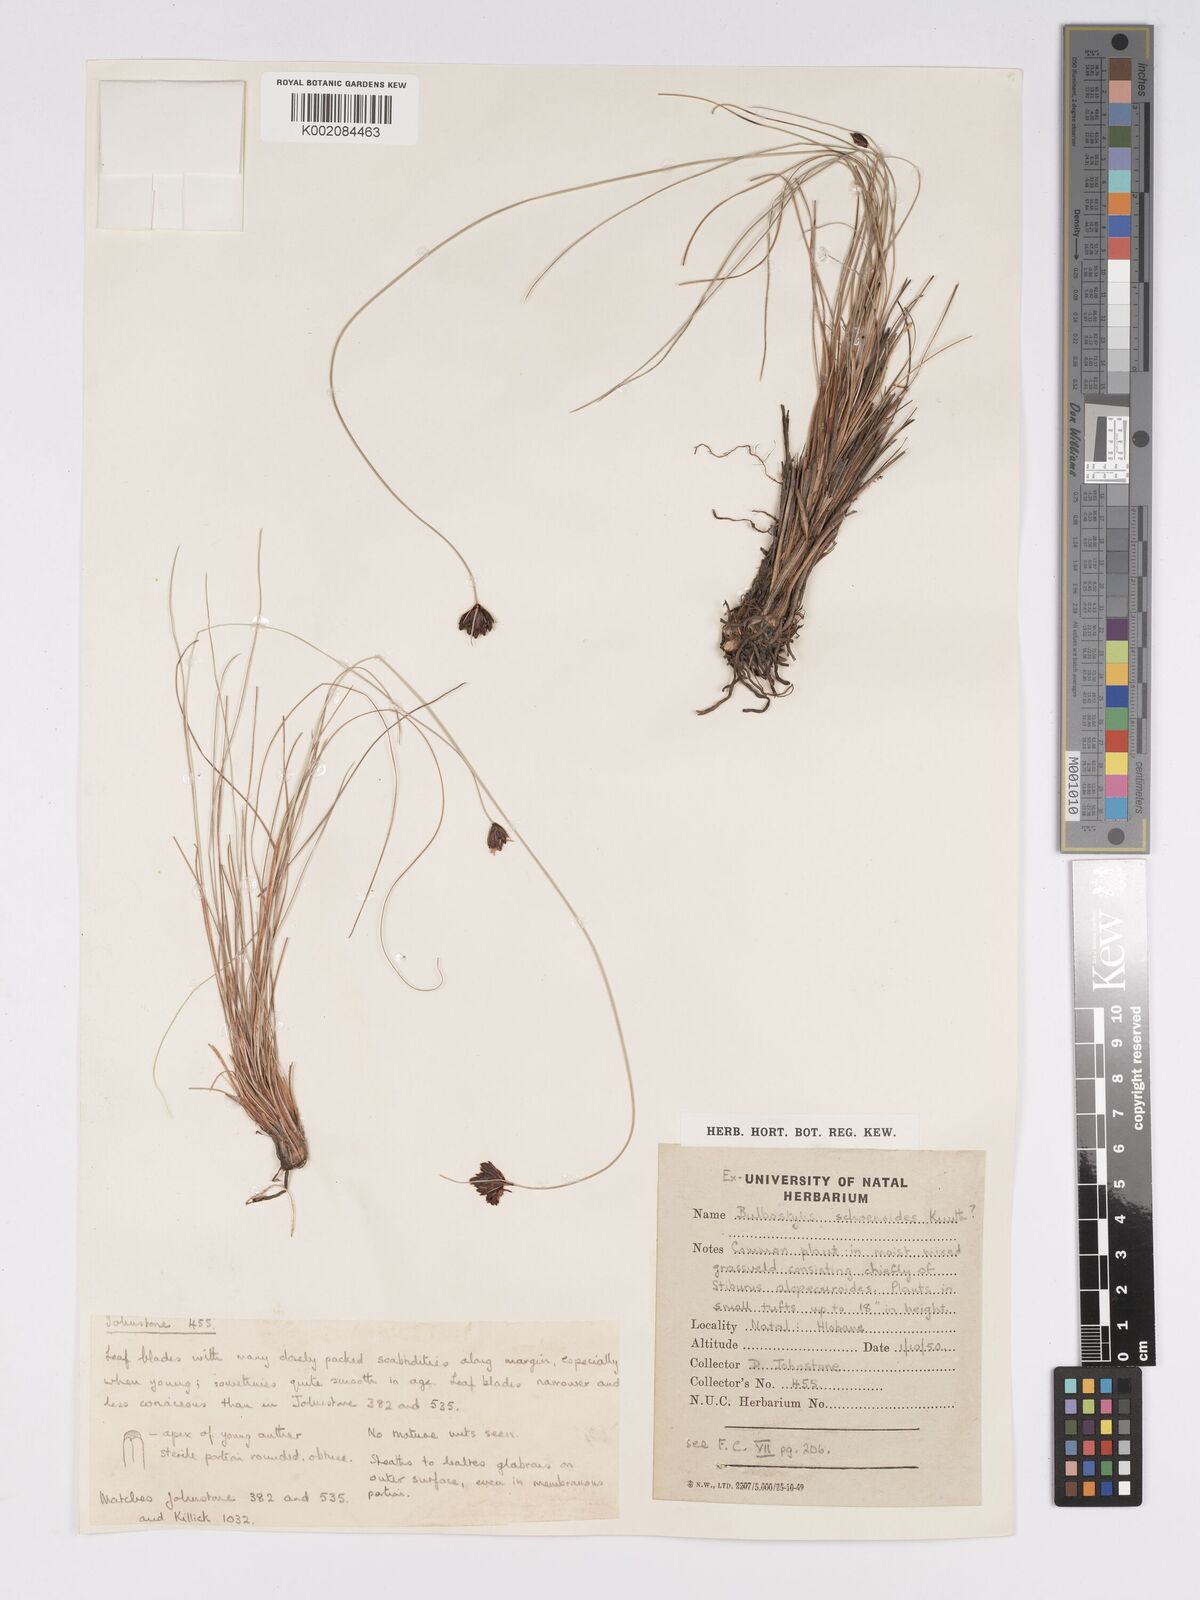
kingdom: Plantae
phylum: Tracheophyta
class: Liliopsida
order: Poales
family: Cyperaceae
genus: Bulbostylis
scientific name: Bulbostylis schoenoides
